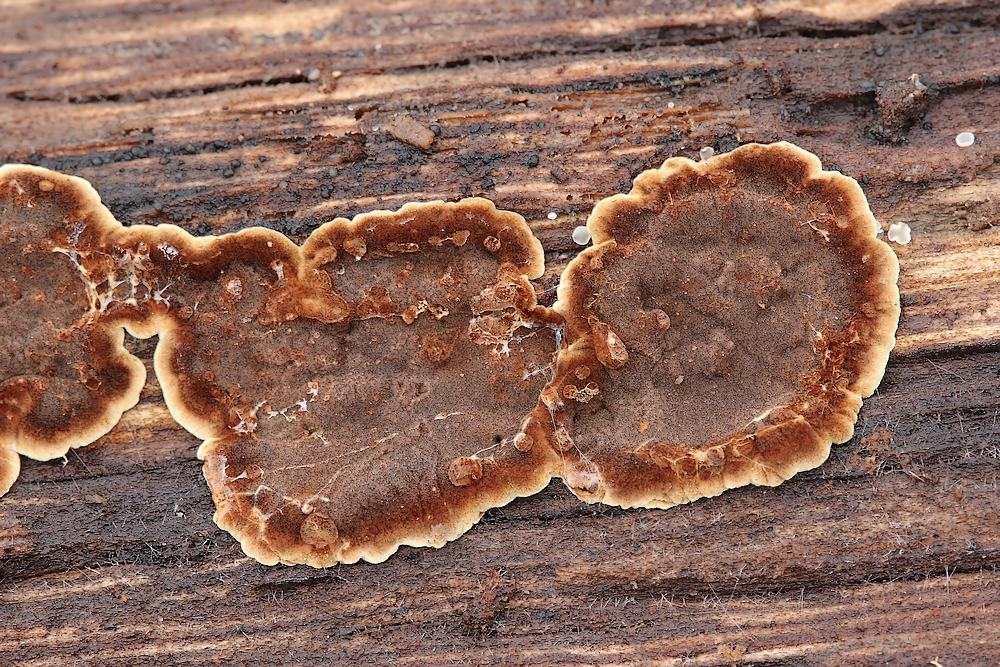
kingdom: Fungi
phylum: Basidiomycota
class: Agaricomycetes
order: Hymenochaetales
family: Hymenochaetaceae
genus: Hymenochaete
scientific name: Hymenochaete rubiginosa
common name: stiv ruslædersvamp
